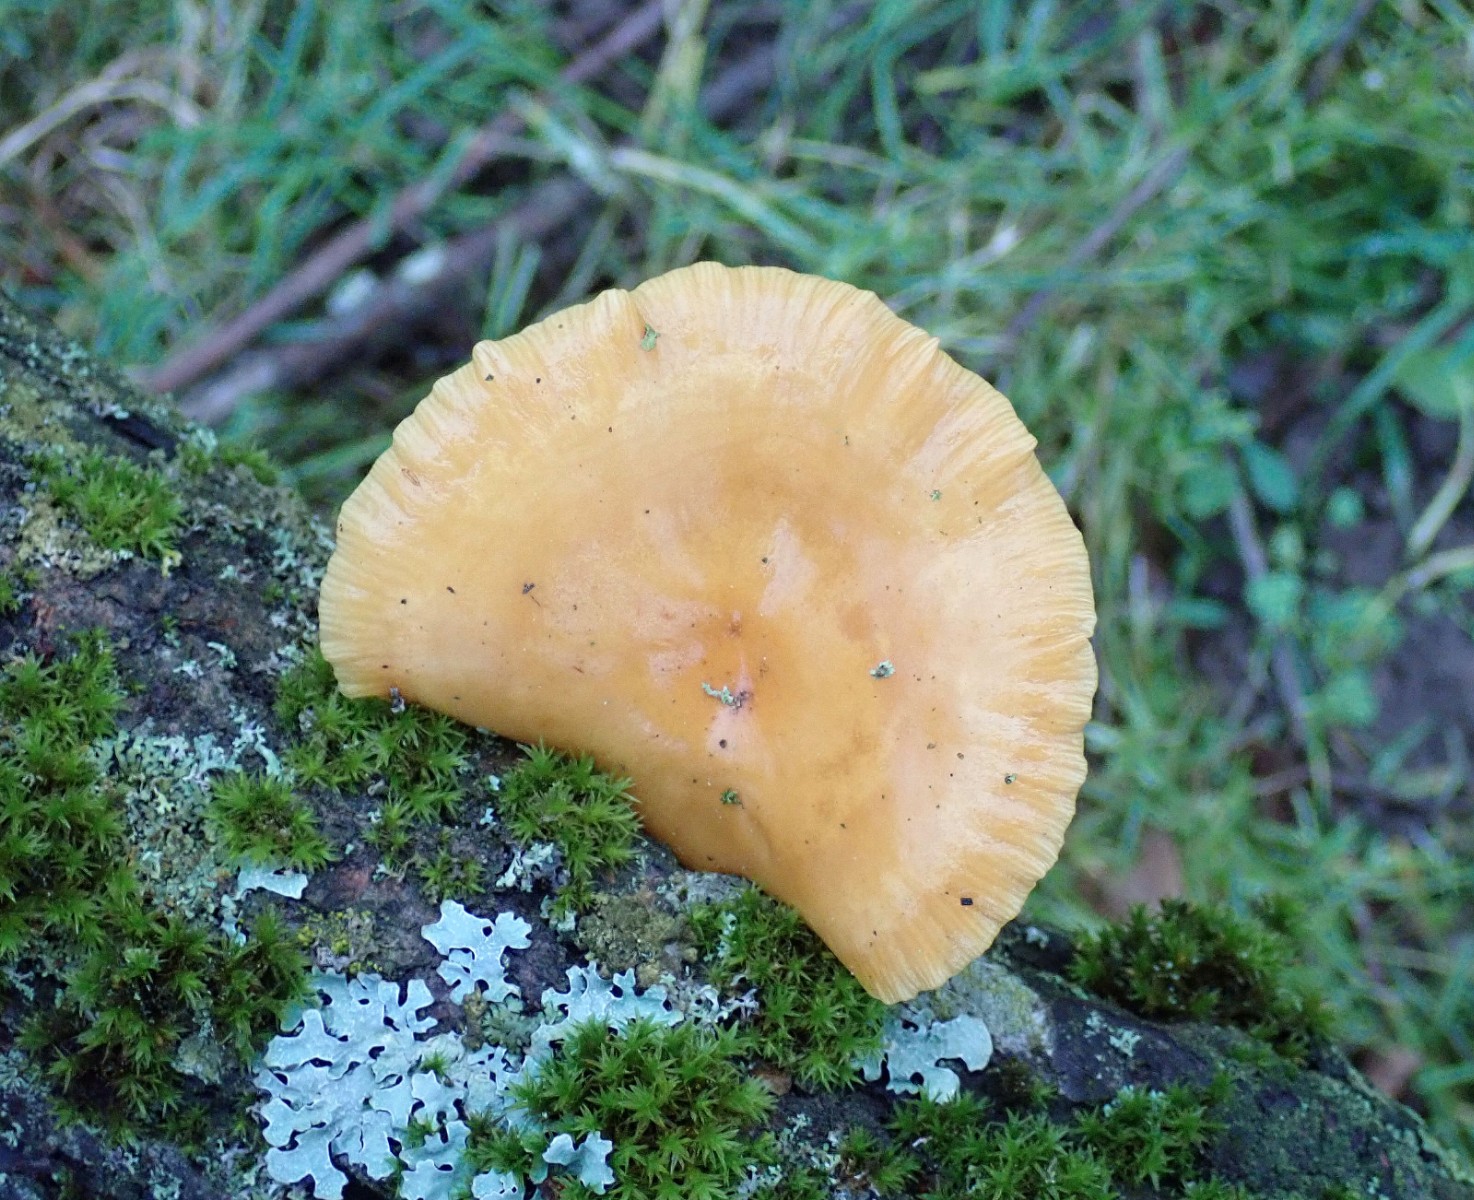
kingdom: Fungi
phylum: Basidiomycota
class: Agaricomycetes
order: Agaricales
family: Physalacriaceae
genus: Flammulina
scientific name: Flammulina
